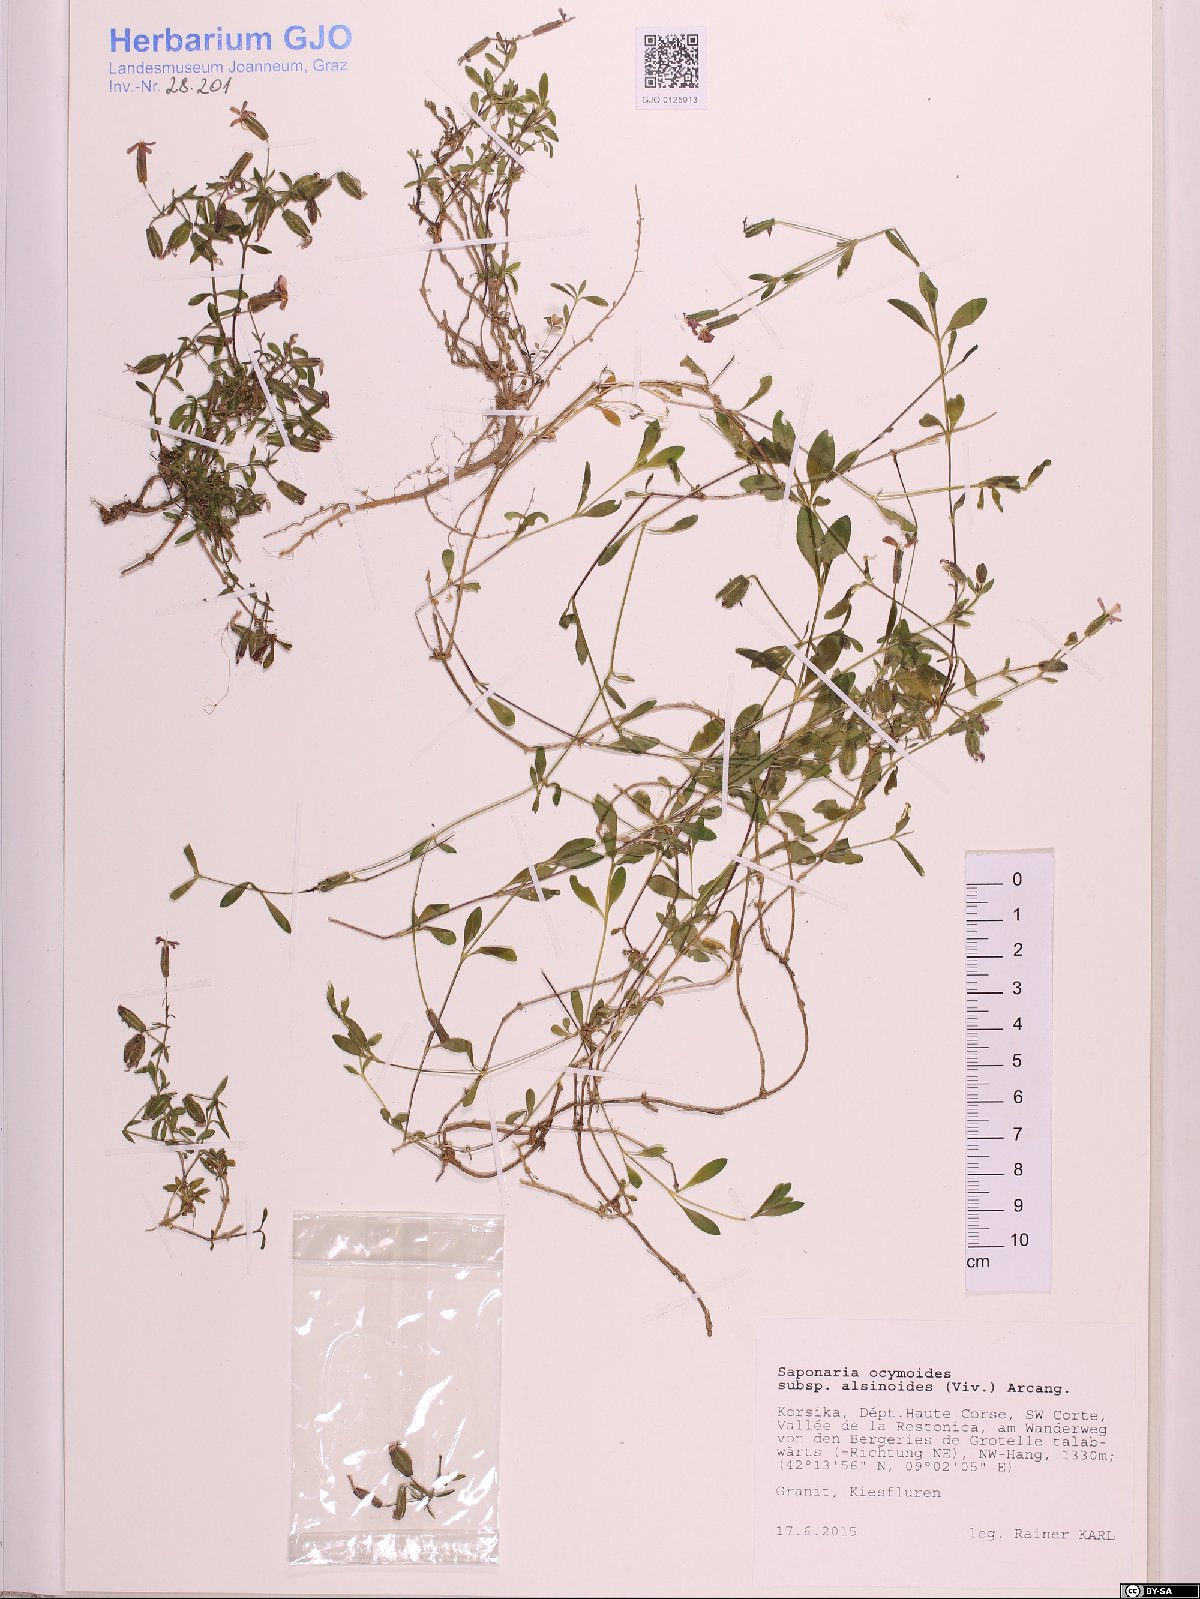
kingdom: Plantae
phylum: Tracheophyta
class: Magnoliopsida
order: Caryophyllales
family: Caryophyllaceae
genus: Saponaria
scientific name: Saponaria ocymoides
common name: Rock soapwort
